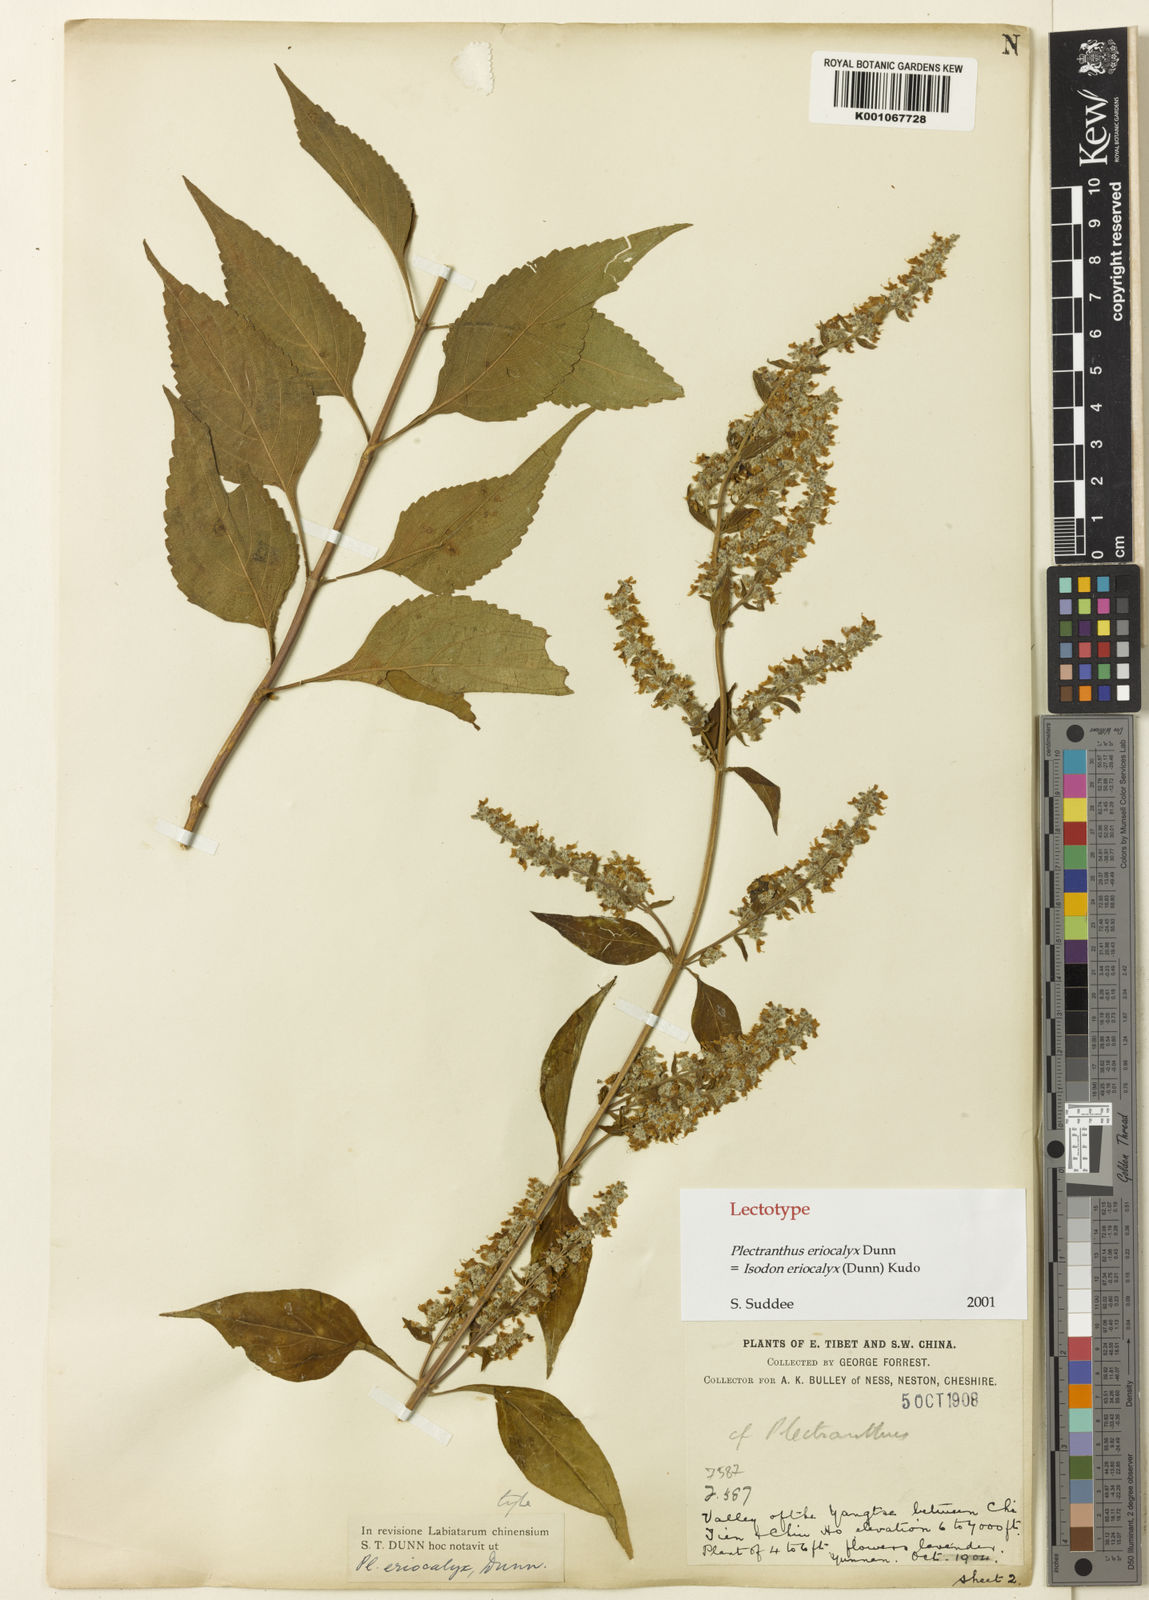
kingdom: Plantae
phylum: Tracheophyta
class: Magnoliopsida
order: Lamiales
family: Lamiaceae
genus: Isodon
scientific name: Isodon
